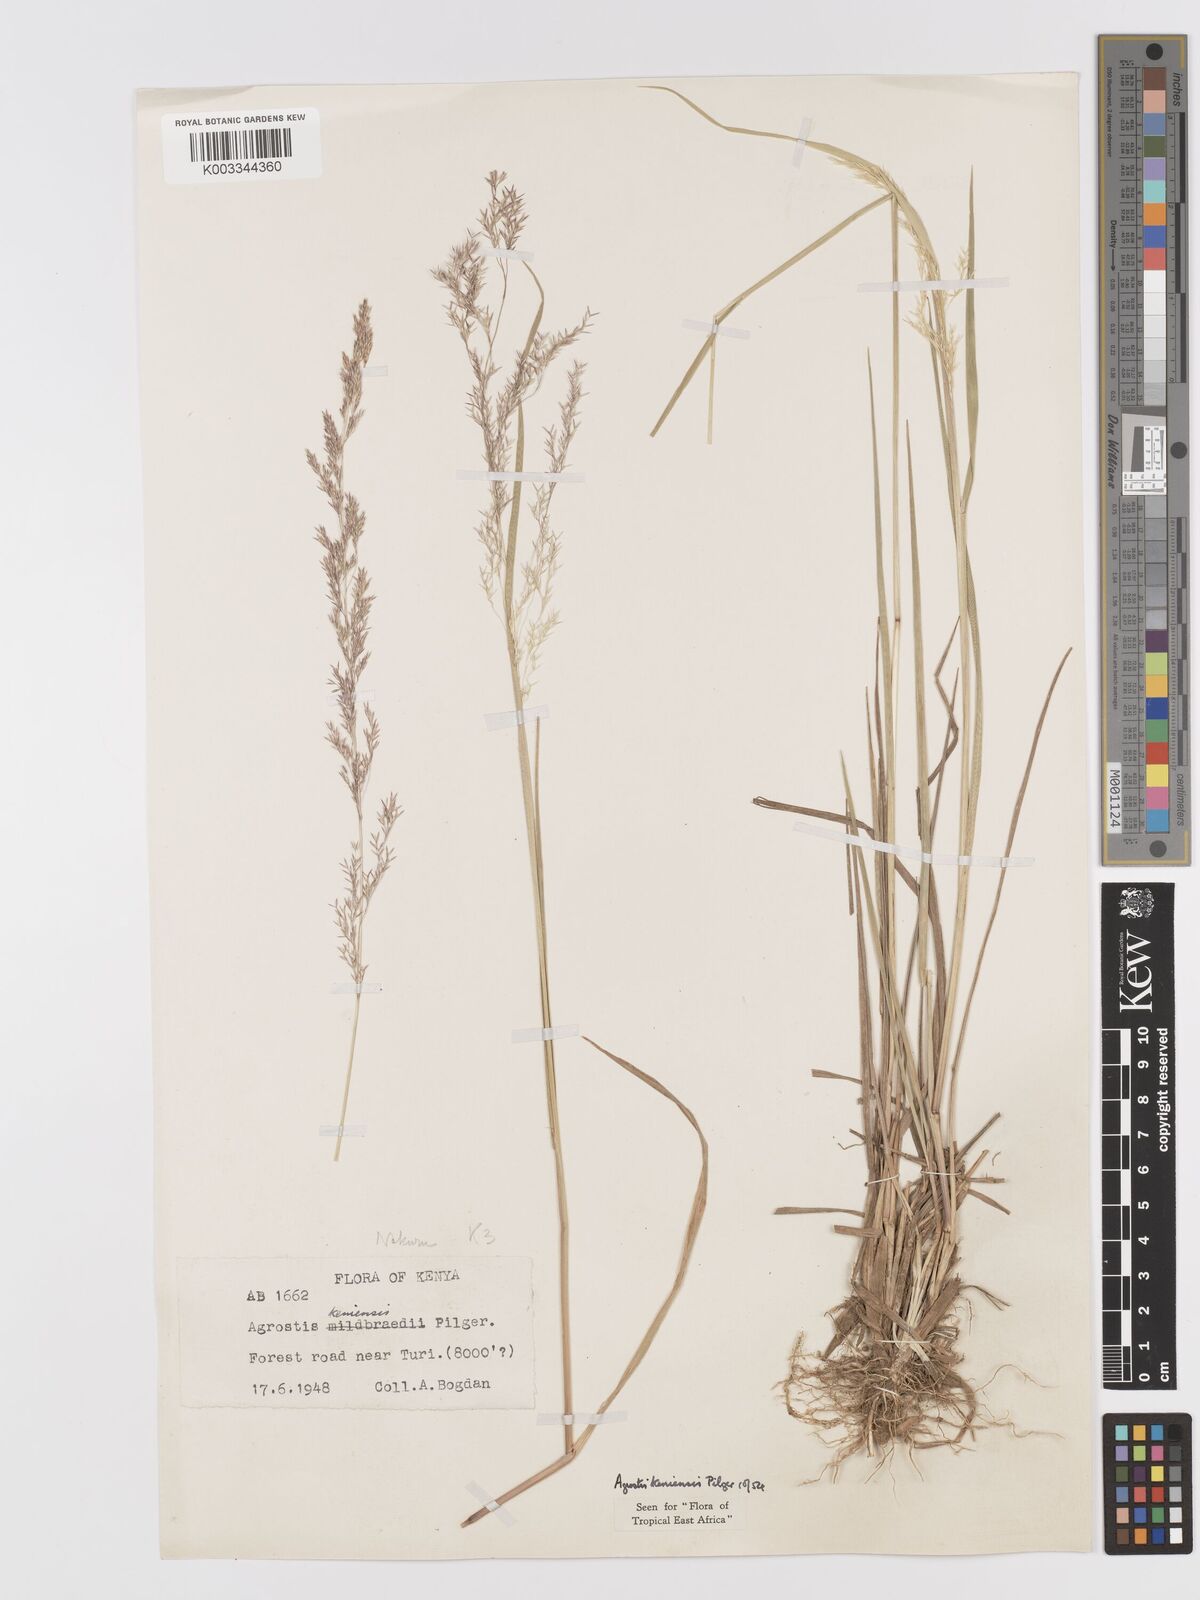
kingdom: Plantae
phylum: Tracheophyta
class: Liliopsida
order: Poales
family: Poaceae
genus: Agrostis
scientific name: Agrostis keniensis
